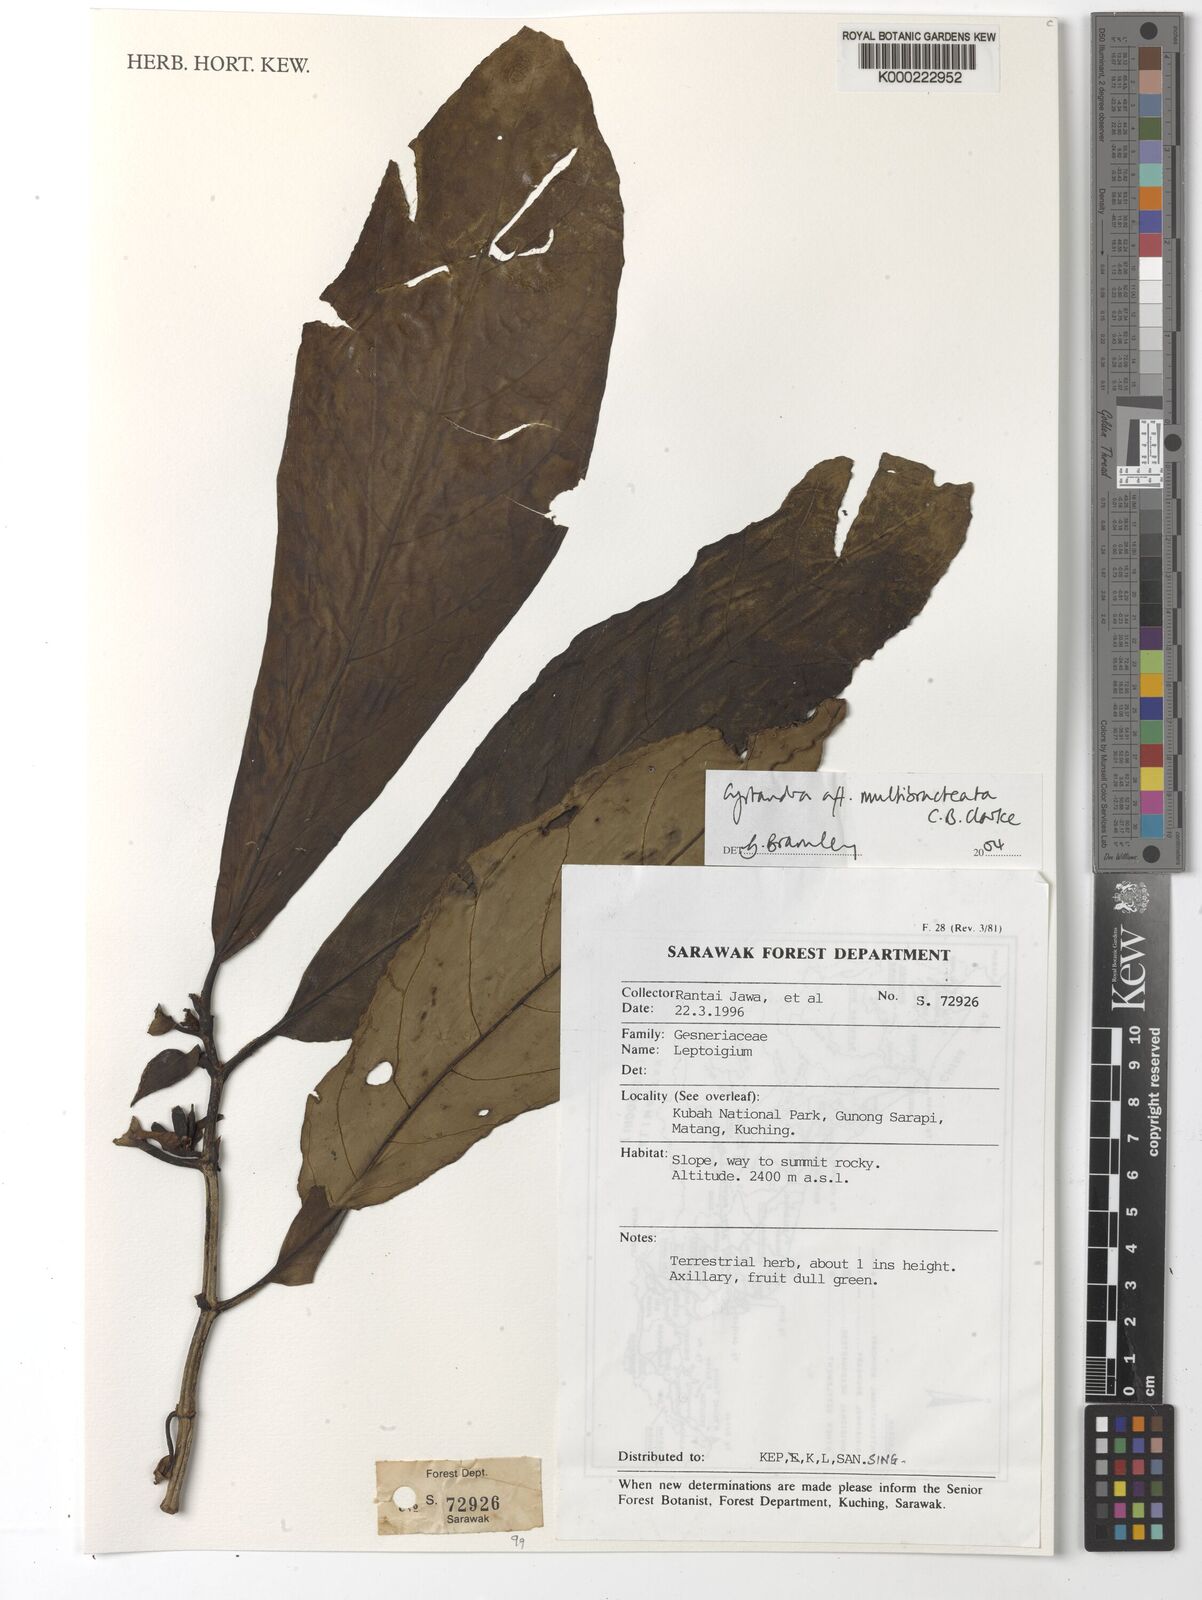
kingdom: Plantae
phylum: Tracheophyta
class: Magnoliopsida
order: Lamiales
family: Gesneriaceae
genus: Cyrtandra
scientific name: Cyrtandra multibracteata
